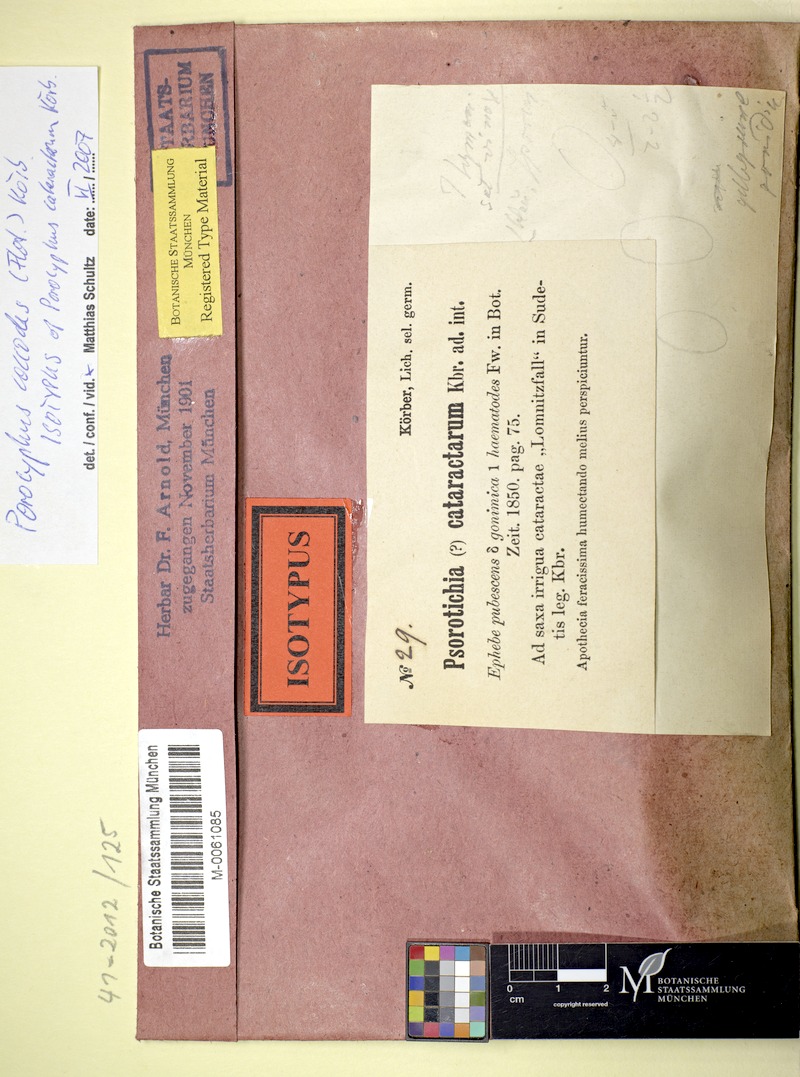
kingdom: Fungi
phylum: Ascomycota
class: Lichinomycetes
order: Lichinales
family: Lichinaceae
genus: Porocyphus
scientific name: Porocyphus coccodes
